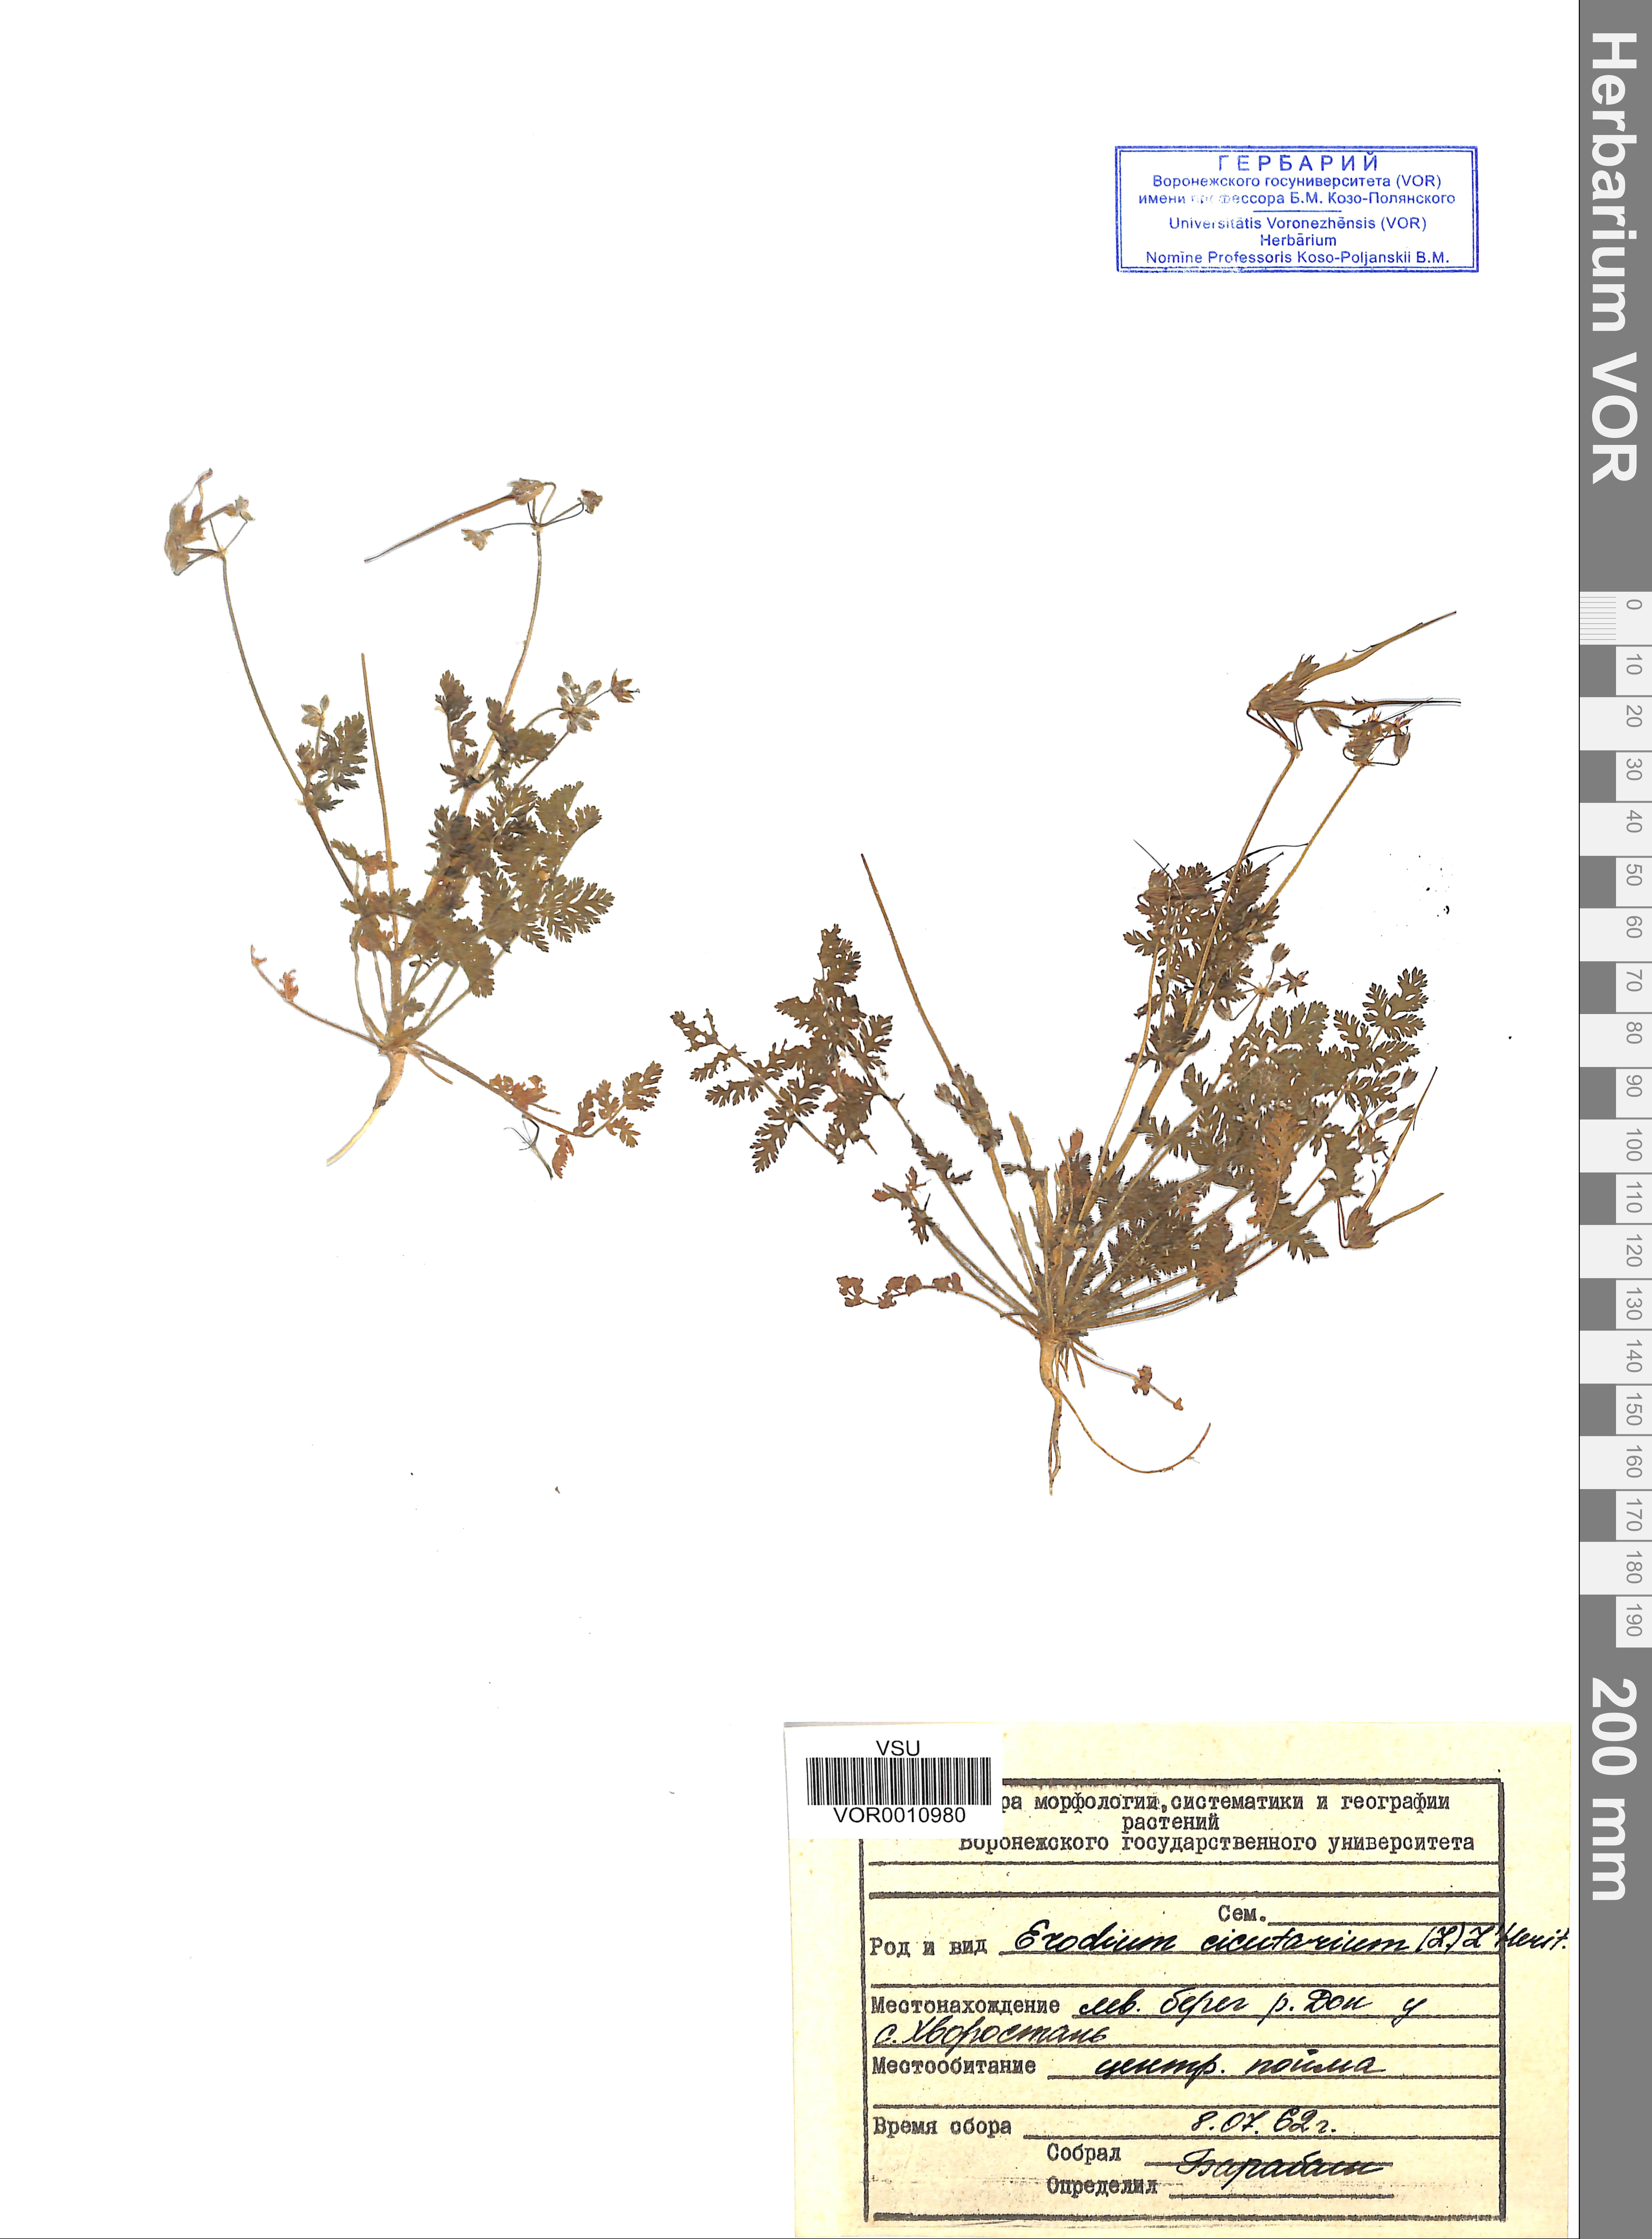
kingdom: Plantae
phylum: Tracheophyta
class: Magnoliopsida
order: Geraniales
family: Geraniaceae
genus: Erodium
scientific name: Erodium cicutarium
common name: Common stork's-bill
